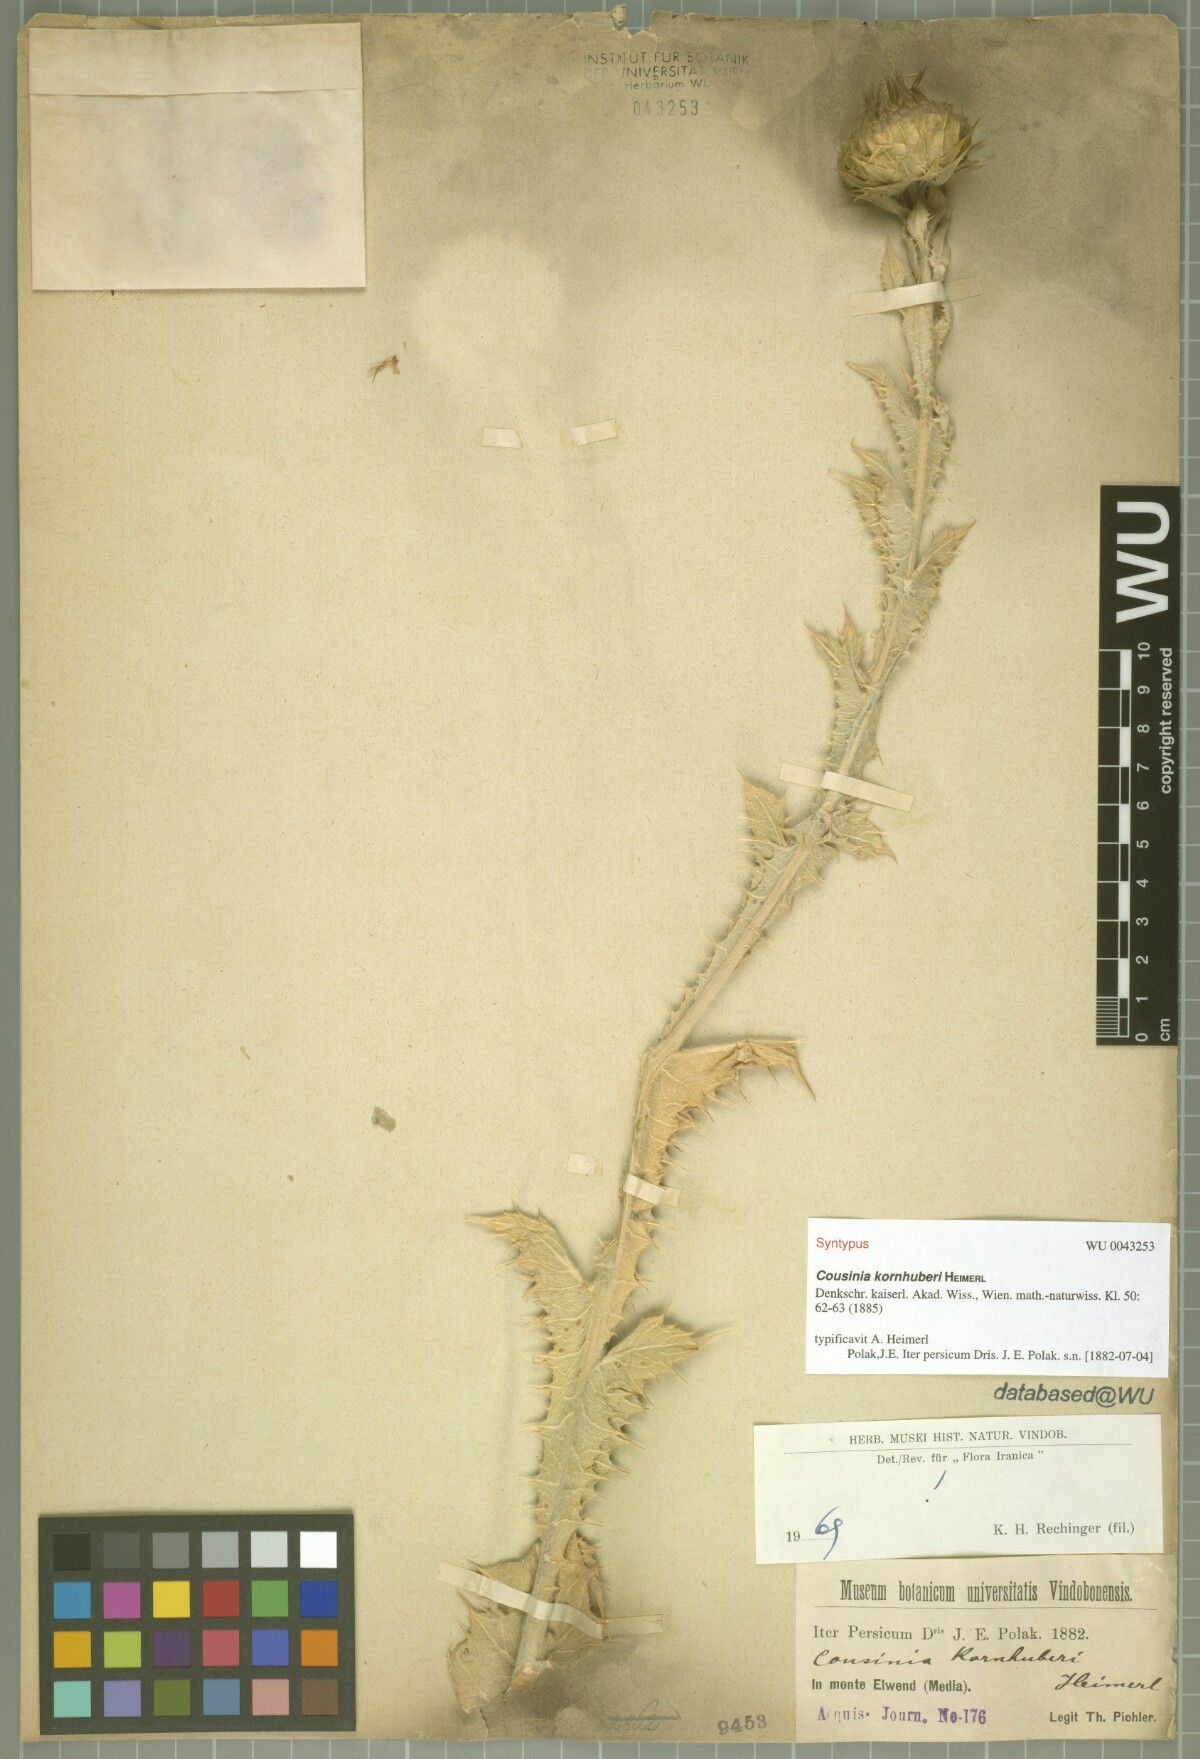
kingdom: Plantae
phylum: Tracheophyta
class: Magnoliopsida
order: Asterales
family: Asteraceae
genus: Cousinia
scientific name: Cousinia kornhuberi
